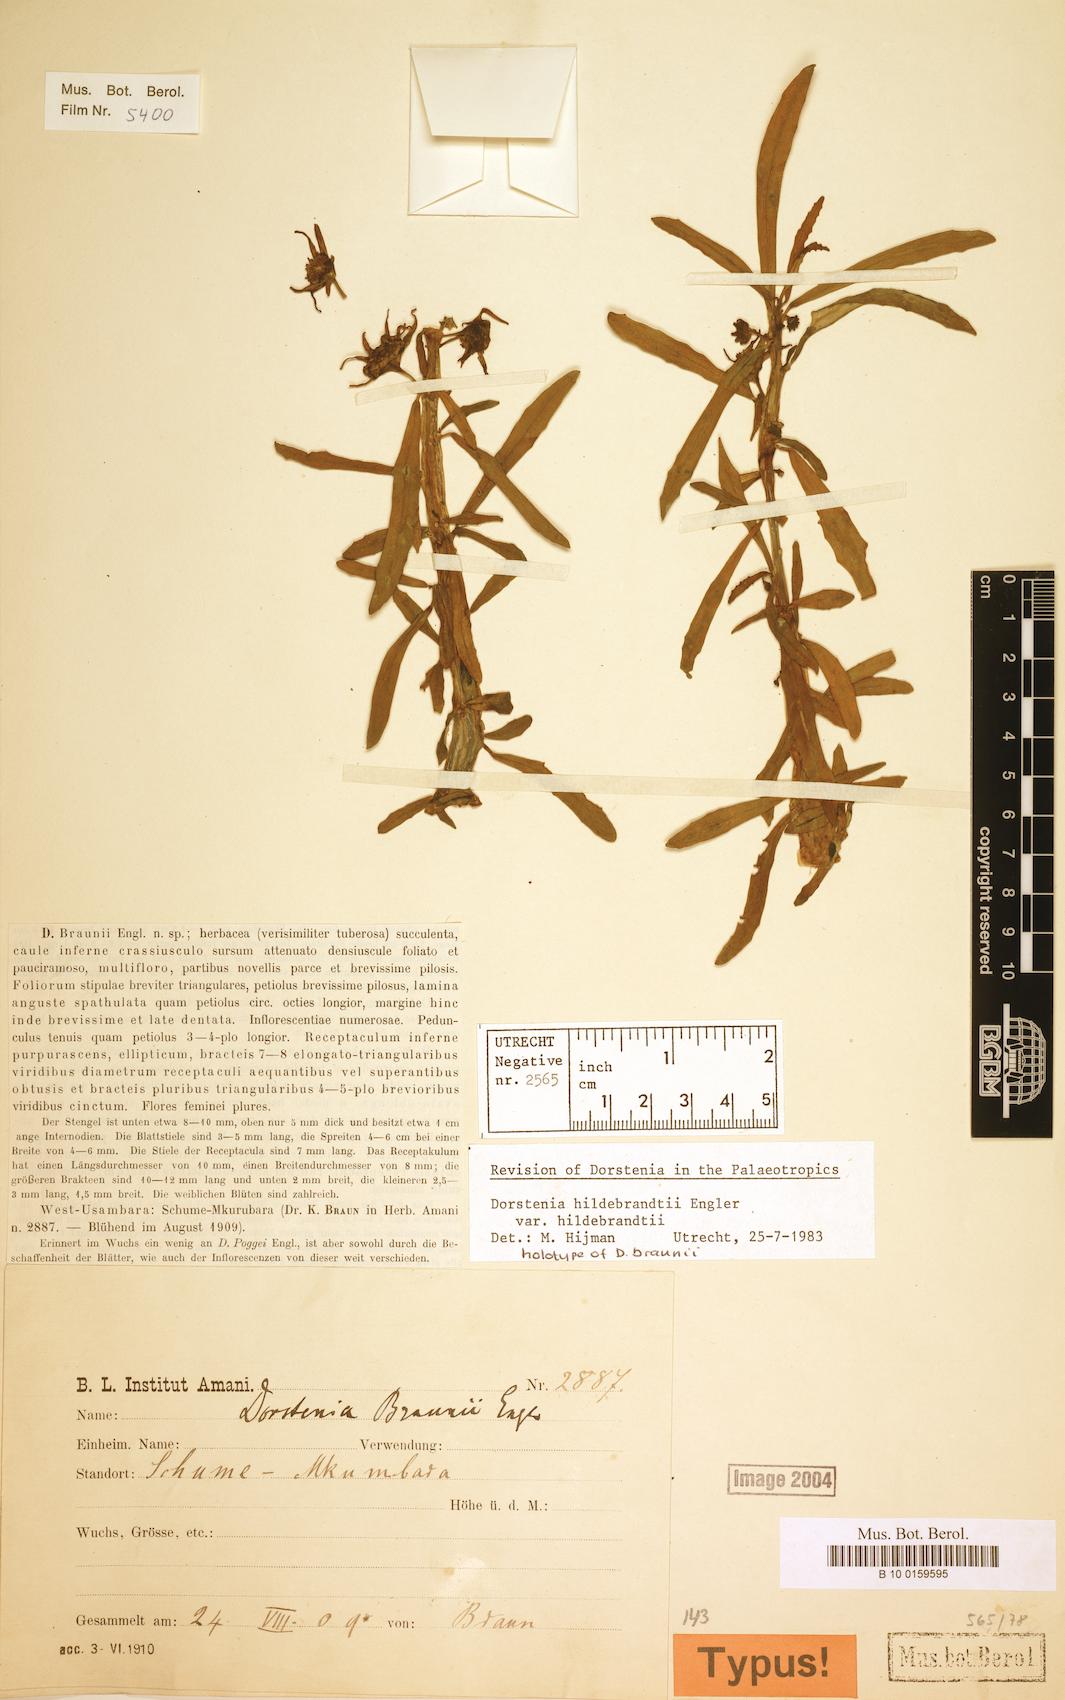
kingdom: Plantae
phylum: Tracheophyta
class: Magnoliopsida
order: Rosales
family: Moraceae
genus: Dorstenia
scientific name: Dorstenia hildebrandtii
